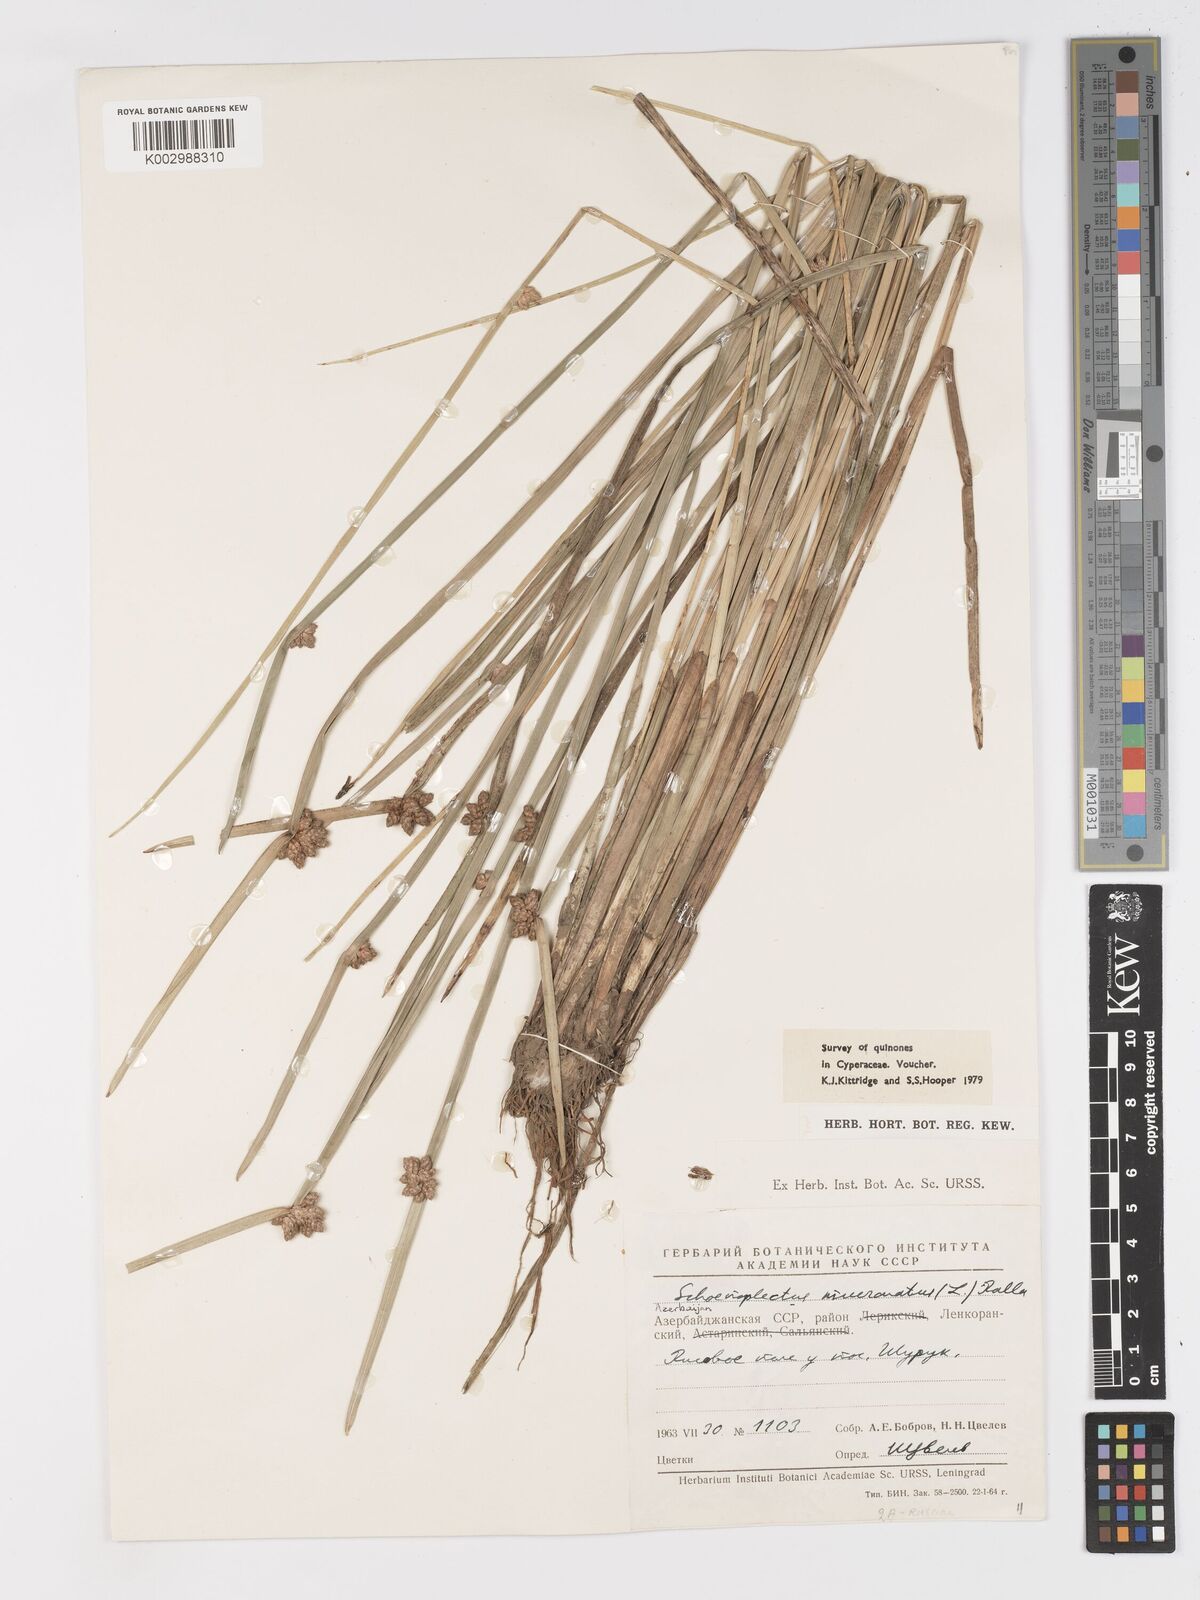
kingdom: Plantae
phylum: Tracheophyta
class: Liliopsida
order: Poales
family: Cyperaceae
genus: Schoenoplectiella
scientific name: Schoenoplectiella mucronata
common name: Bog bulrush
